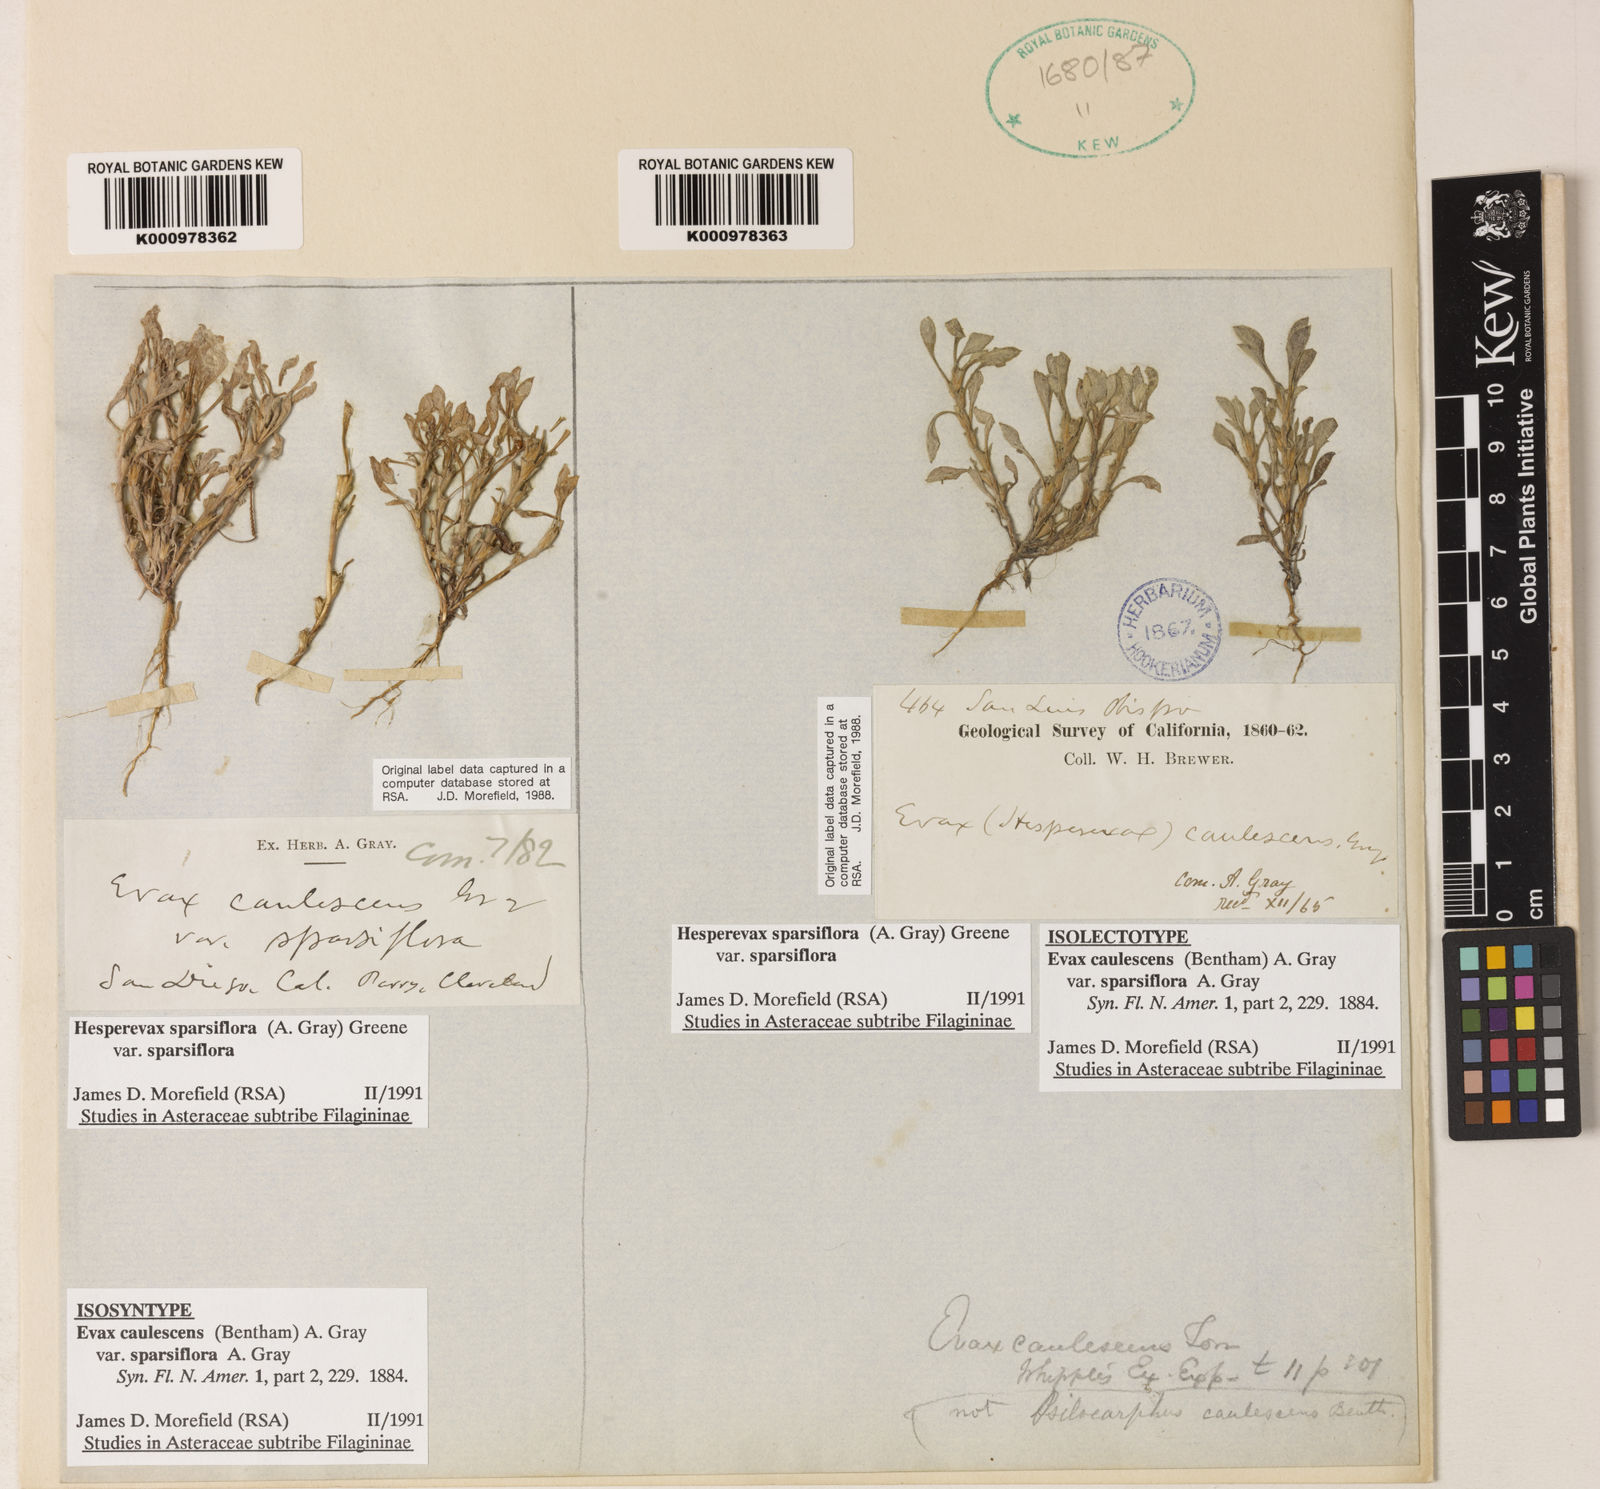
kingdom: Plantae
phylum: Tracheophyta
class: Magnoliopsida
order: Asterales
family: Asteraceae
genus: Hesperevax
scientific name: Hesperevax sparsiflora
